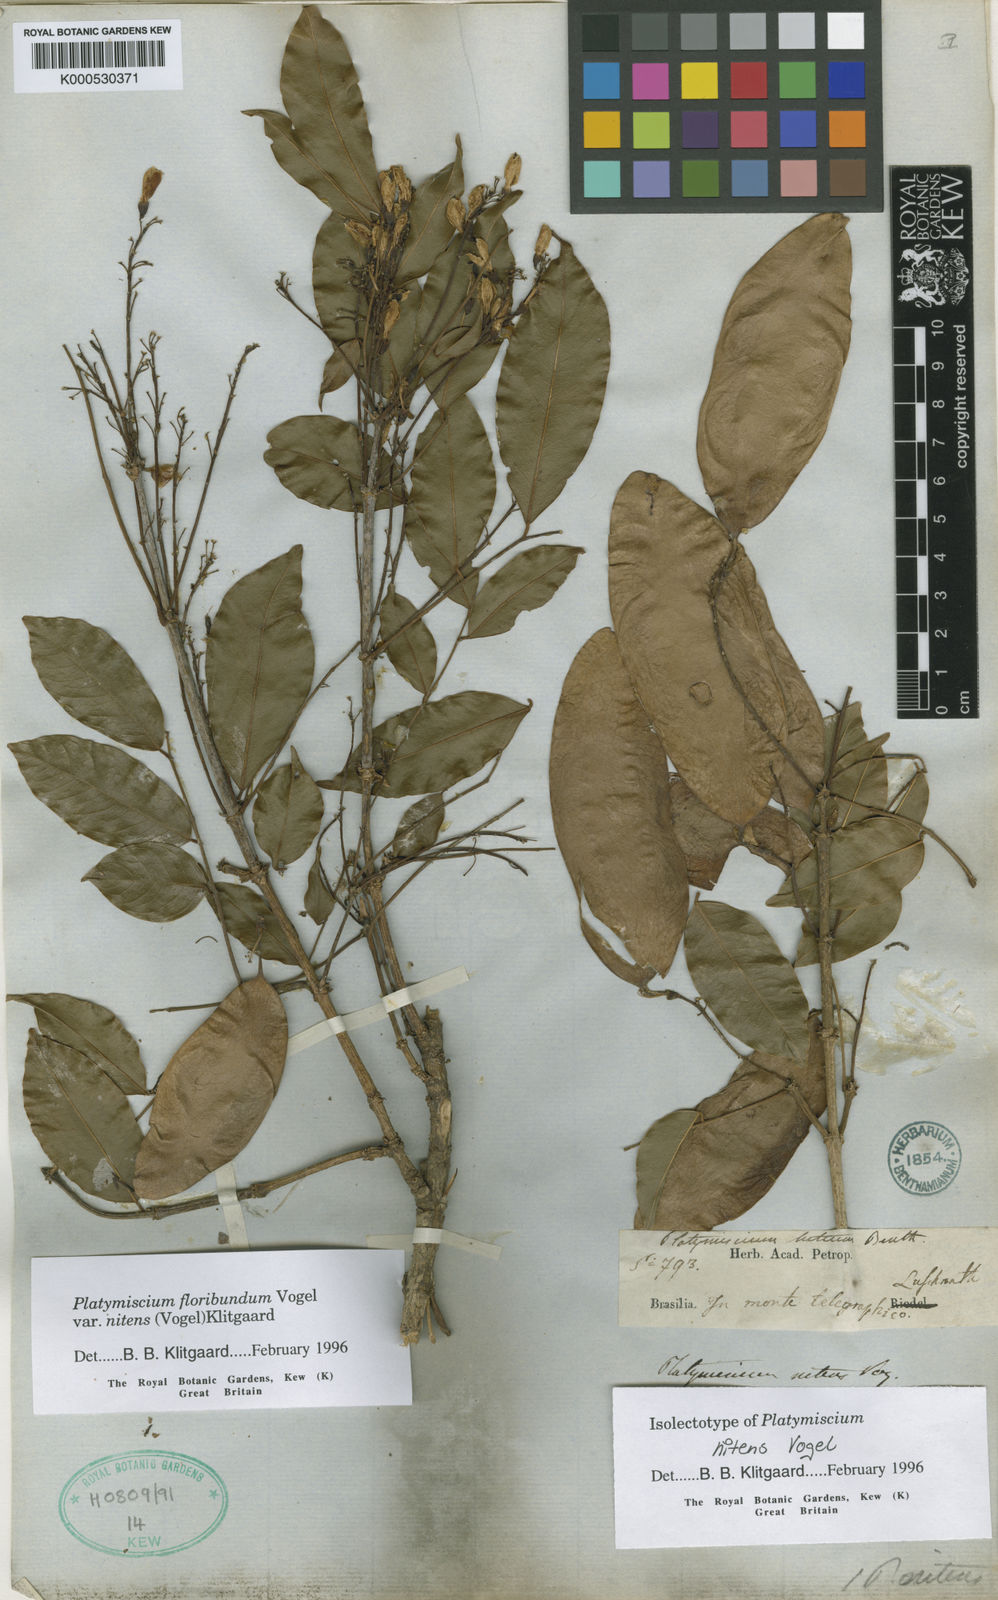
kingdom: Plantae
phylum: Tracheophyta
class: Magnoliopsida
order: Fabales
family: Fabaceae
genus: Platymiscium
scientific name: Platymiscium floribundum
